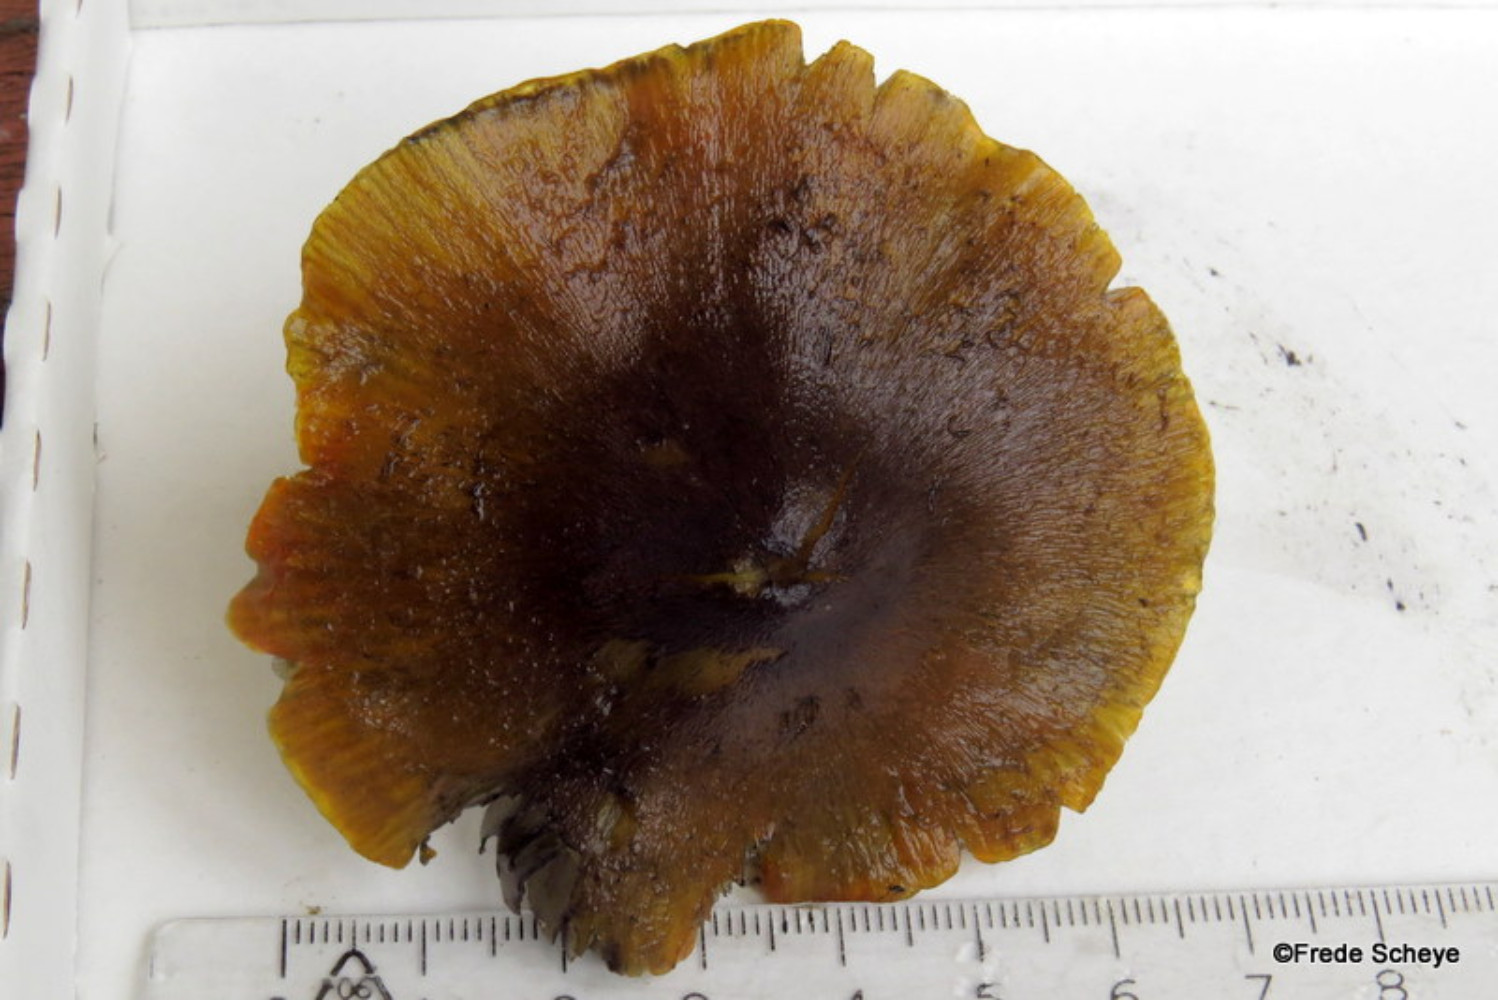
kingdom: Fungi
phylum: Basidiomycota
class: Agaricomycetes
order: Agaricales
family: Hygrophoraceae
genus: Hygrocybe
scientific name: Hygrocybe conica
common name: kegle-vokshat
